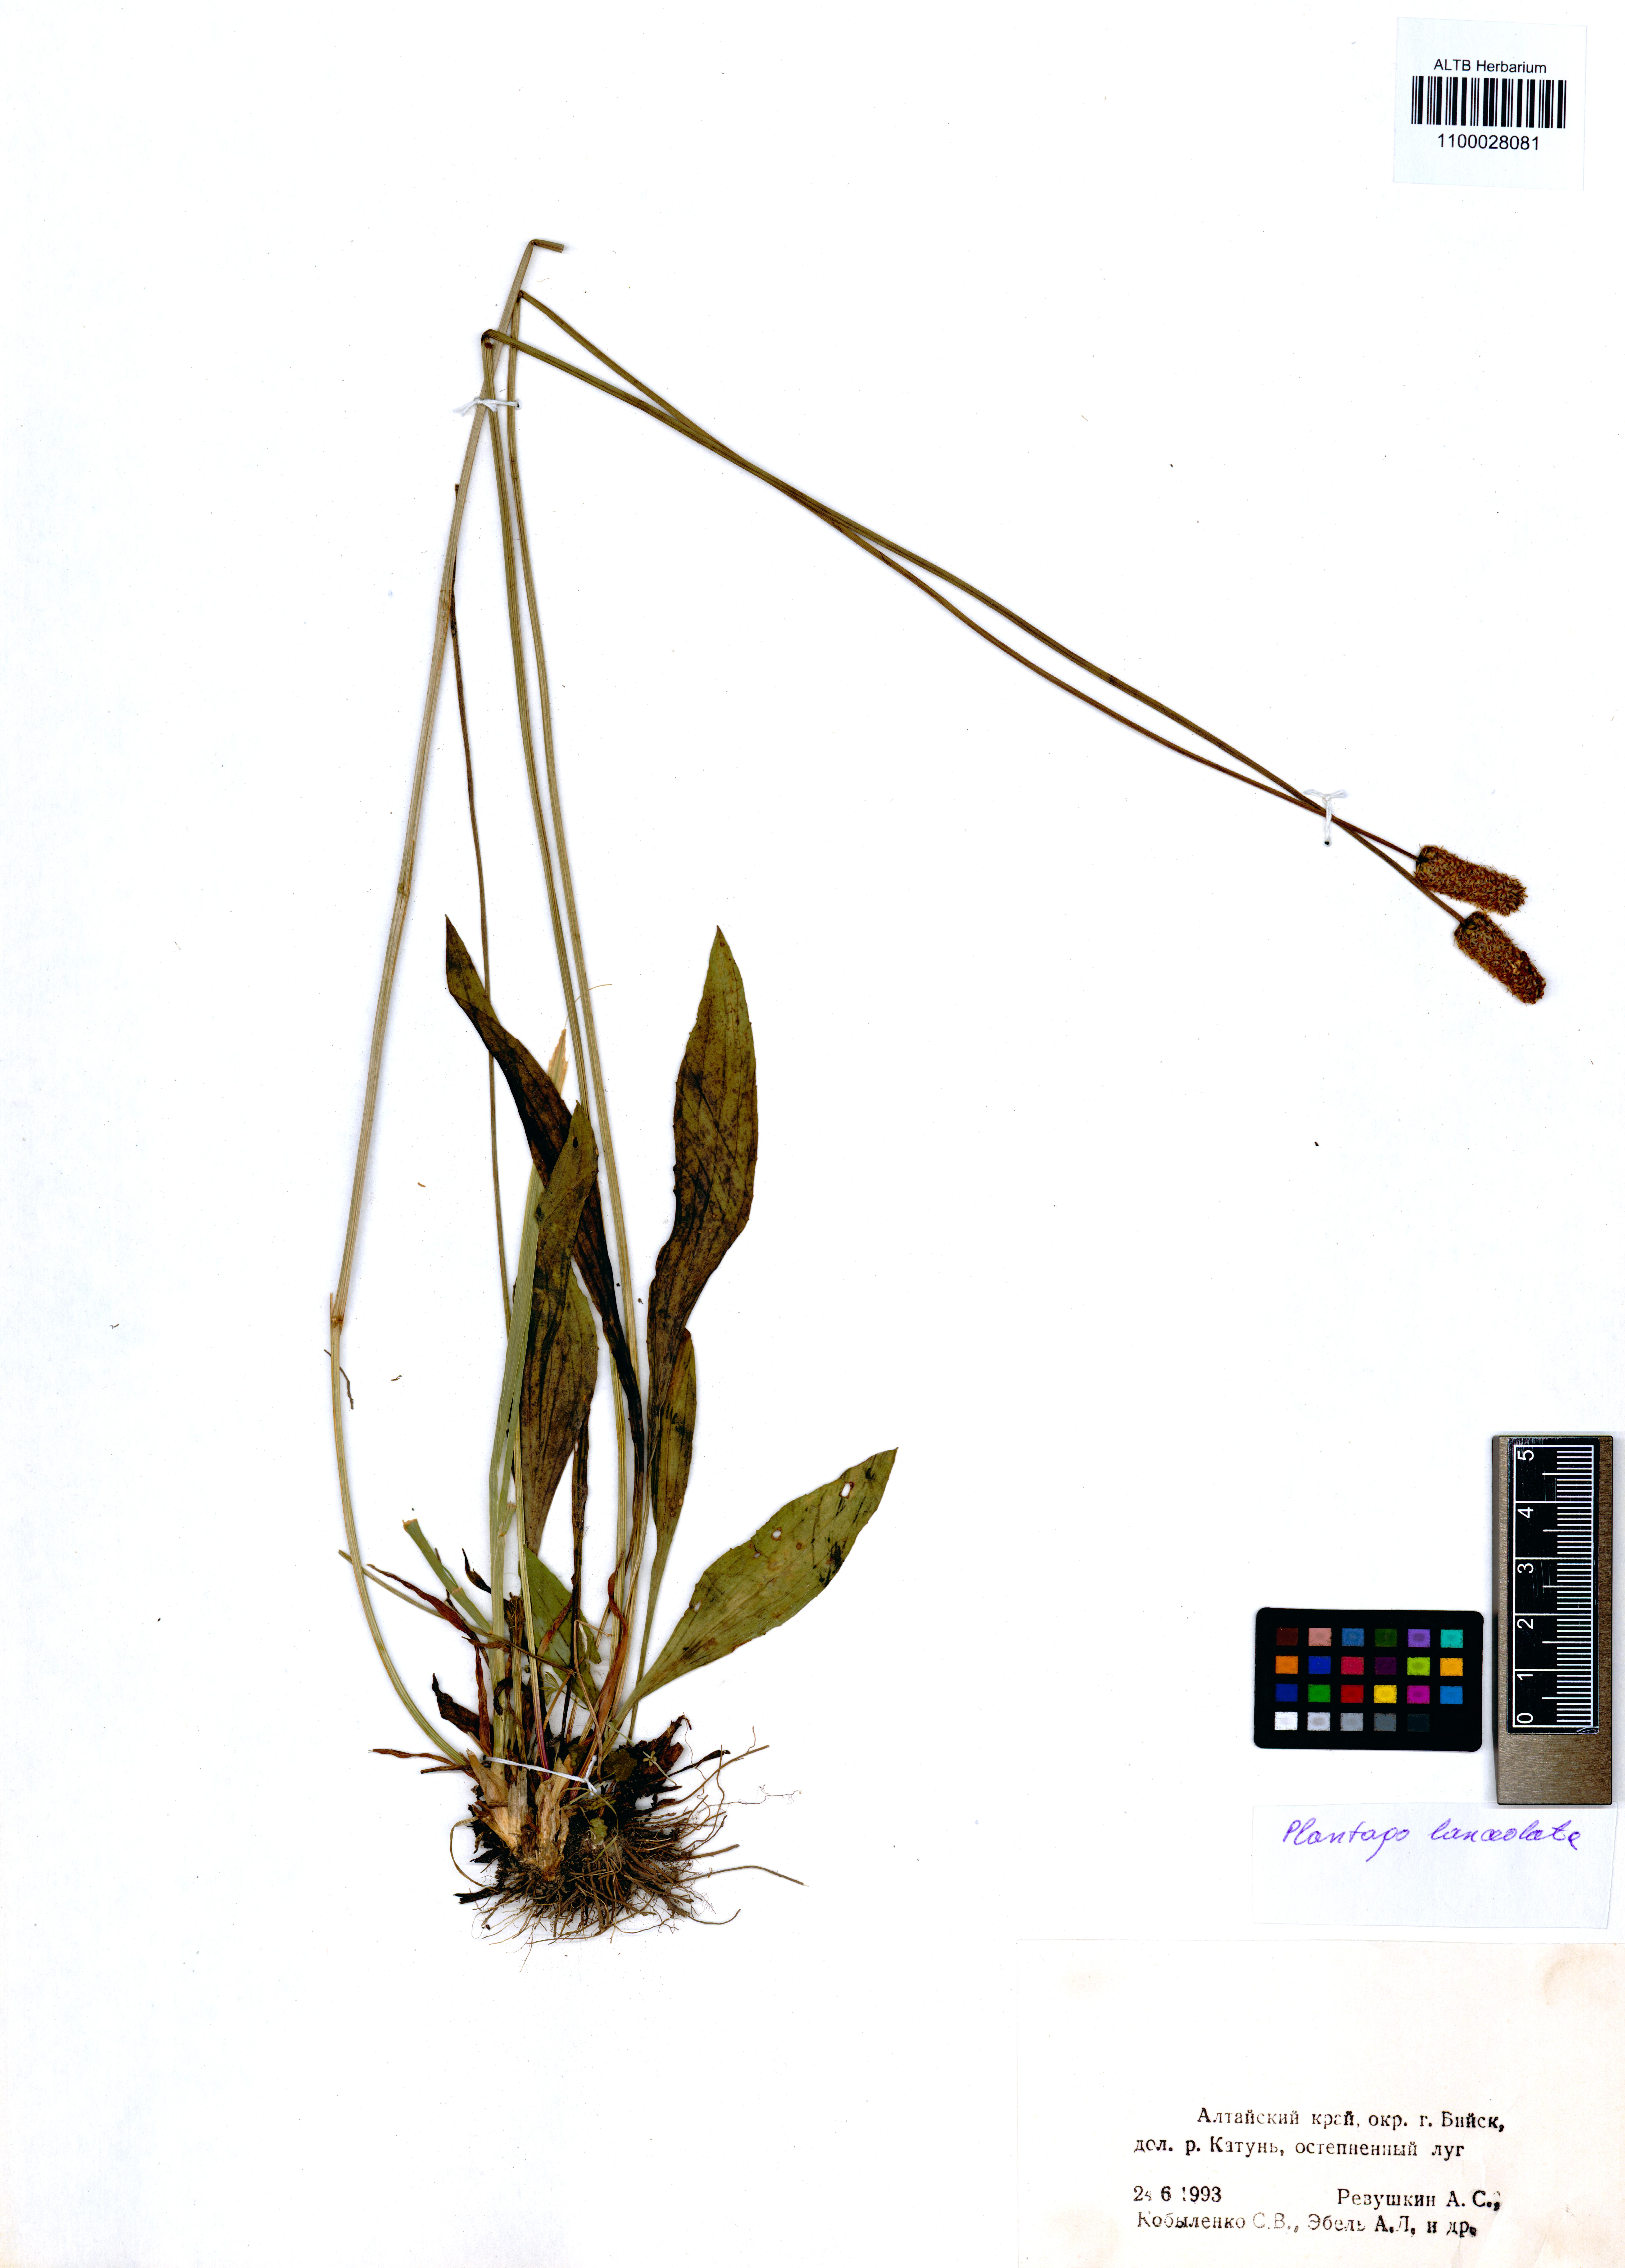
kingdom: Plantae
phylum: Tracheophyta
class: Magnoliopsida
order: Lamiales
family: Plantaginaceae
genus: Plantago
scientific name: Plantago lanceolata
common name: Ribwort plantain
